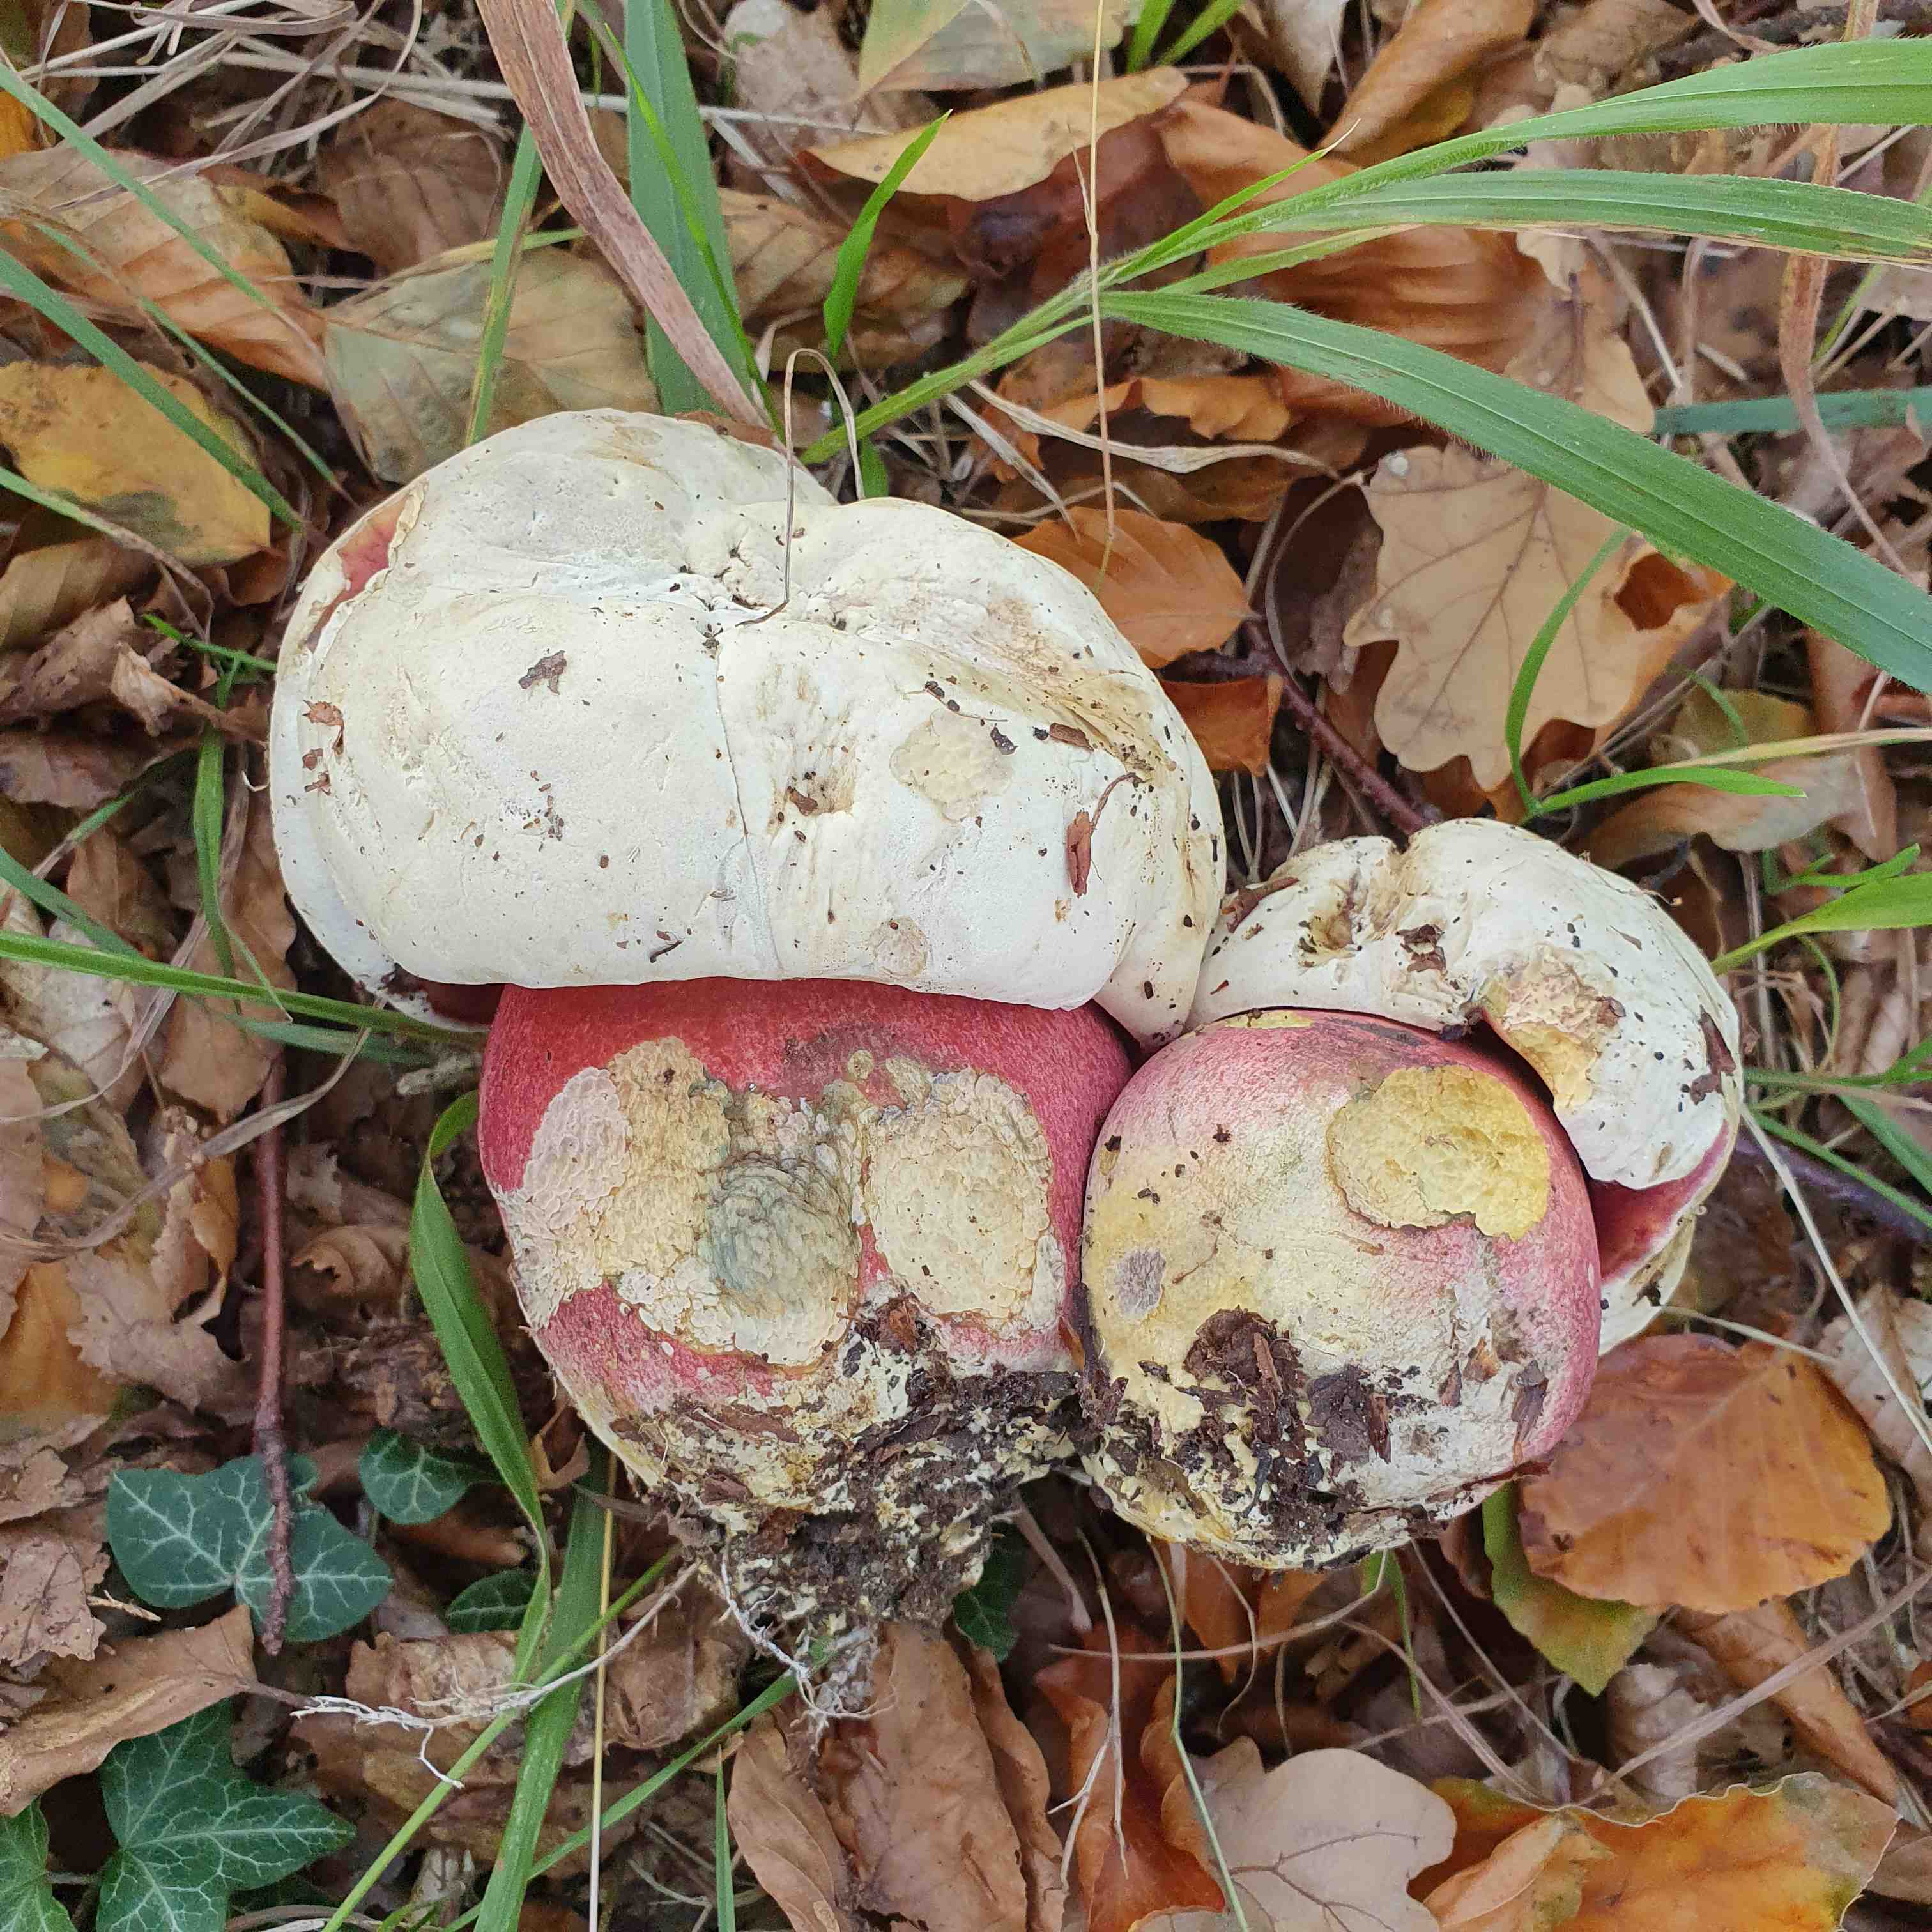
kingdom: Fungi
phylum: Basidiomycota
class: Agaricomycetes
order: Boletales
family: Boletaceae
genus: Rubroboletus
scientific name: Rubroboletus satanas
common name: Satans rørhat
